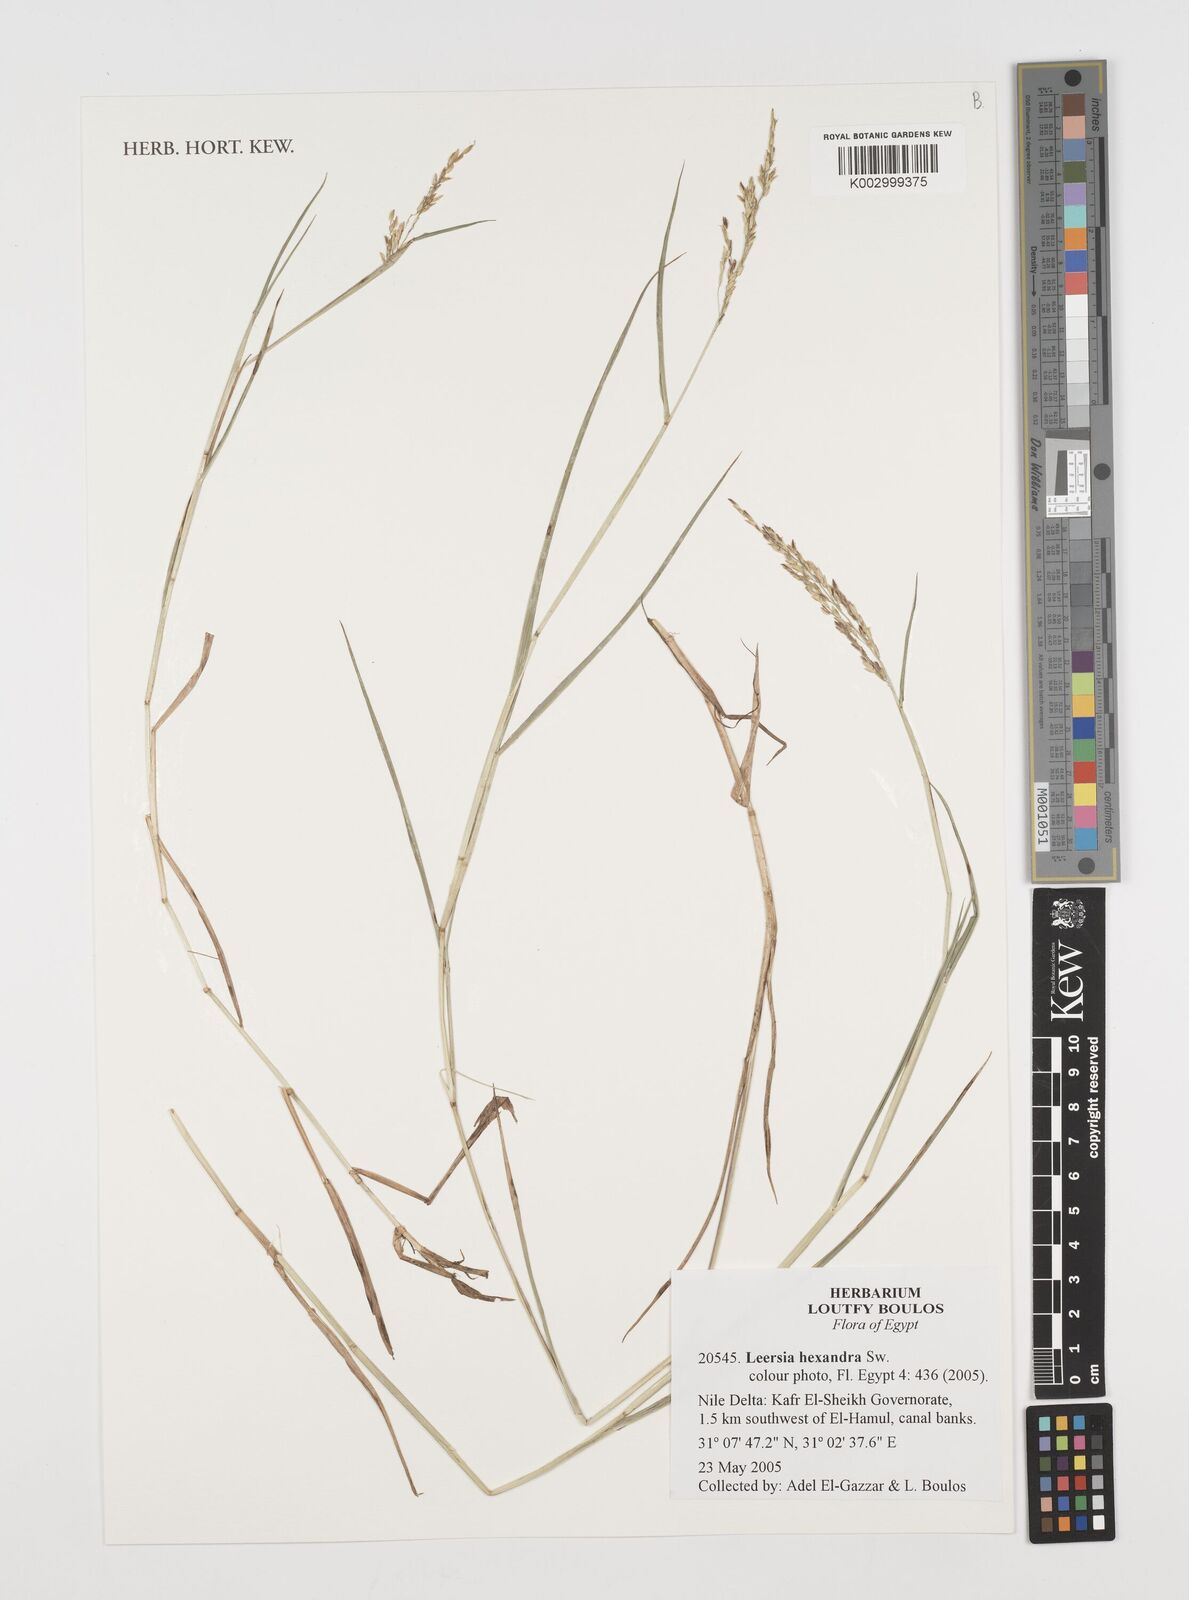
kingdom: Plantae
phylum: Tracheophyta
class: Liliopsida
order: Poales
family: Poaceae
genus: Leersia
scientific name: Leersia hexandra
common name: Southern cut grass
